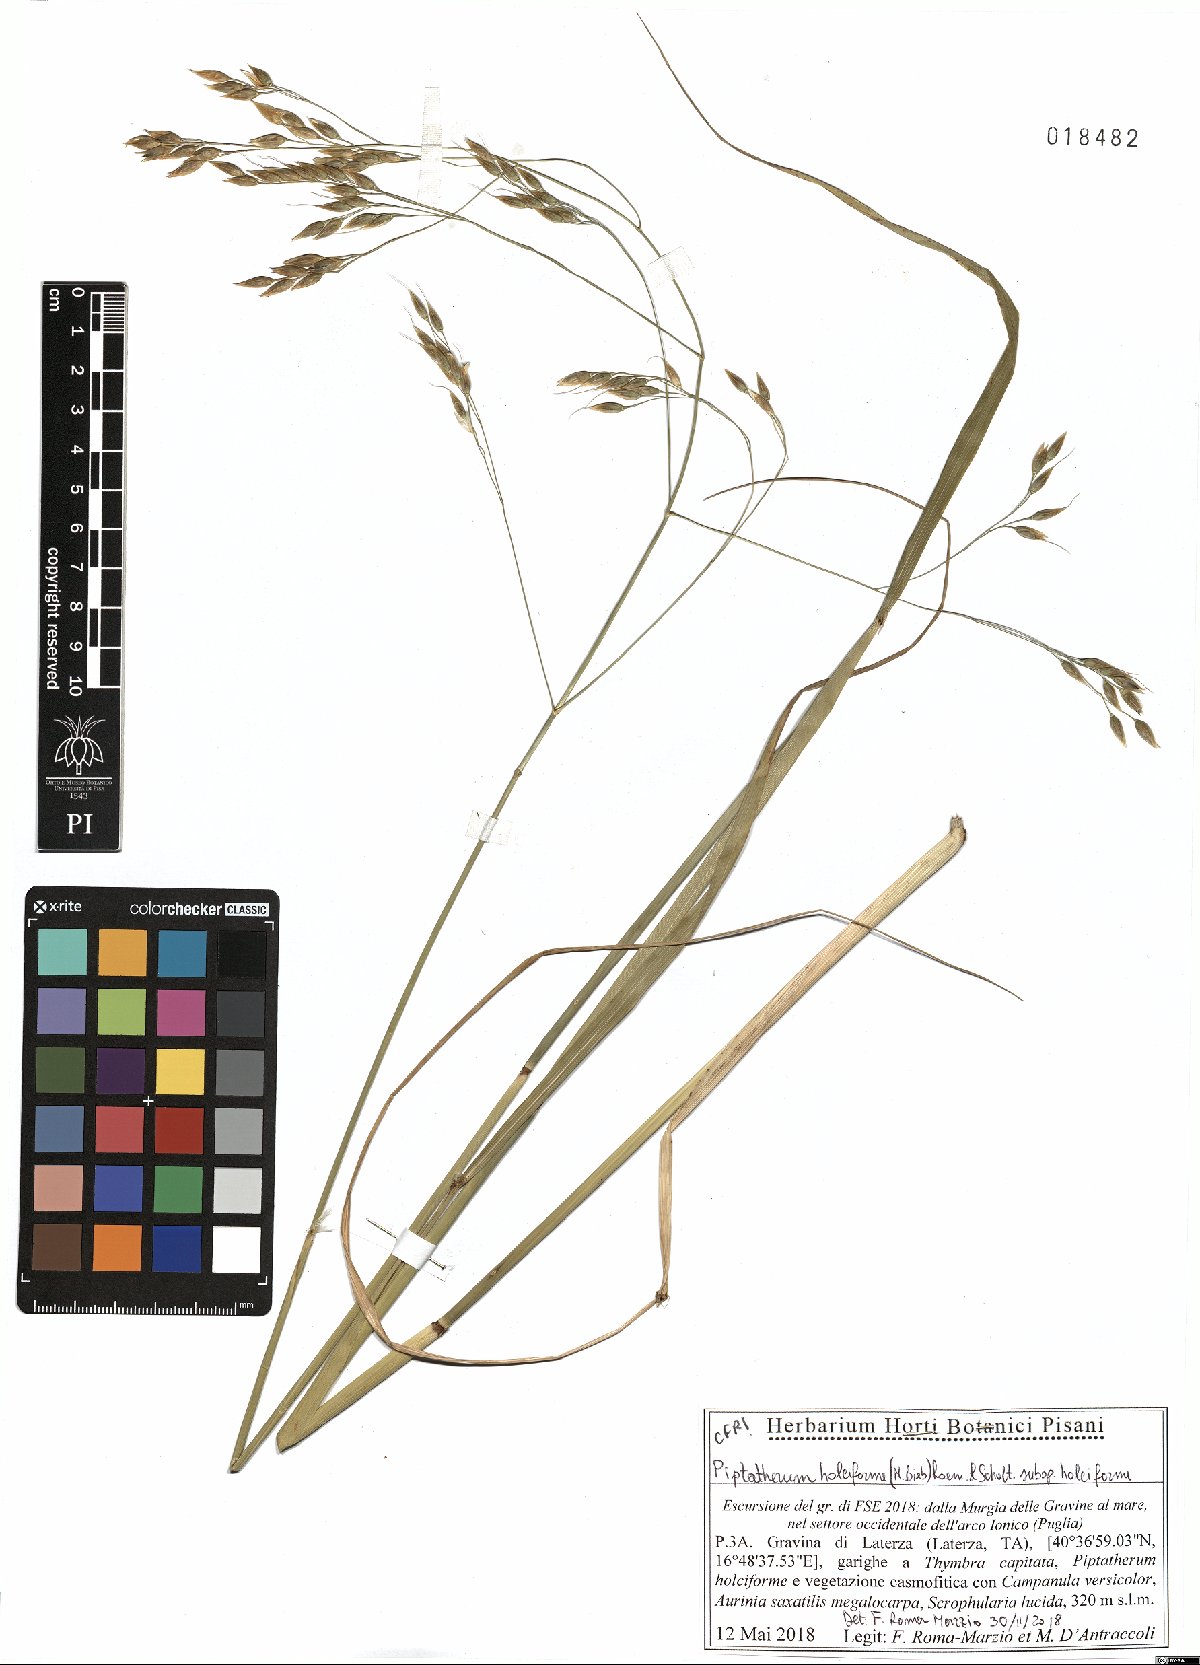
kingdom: Plantae
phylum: Tracheophyta
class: Liliopsida
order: Poales
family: Poaceae
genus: Piptatherum
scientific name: Piptatherum holciforme
